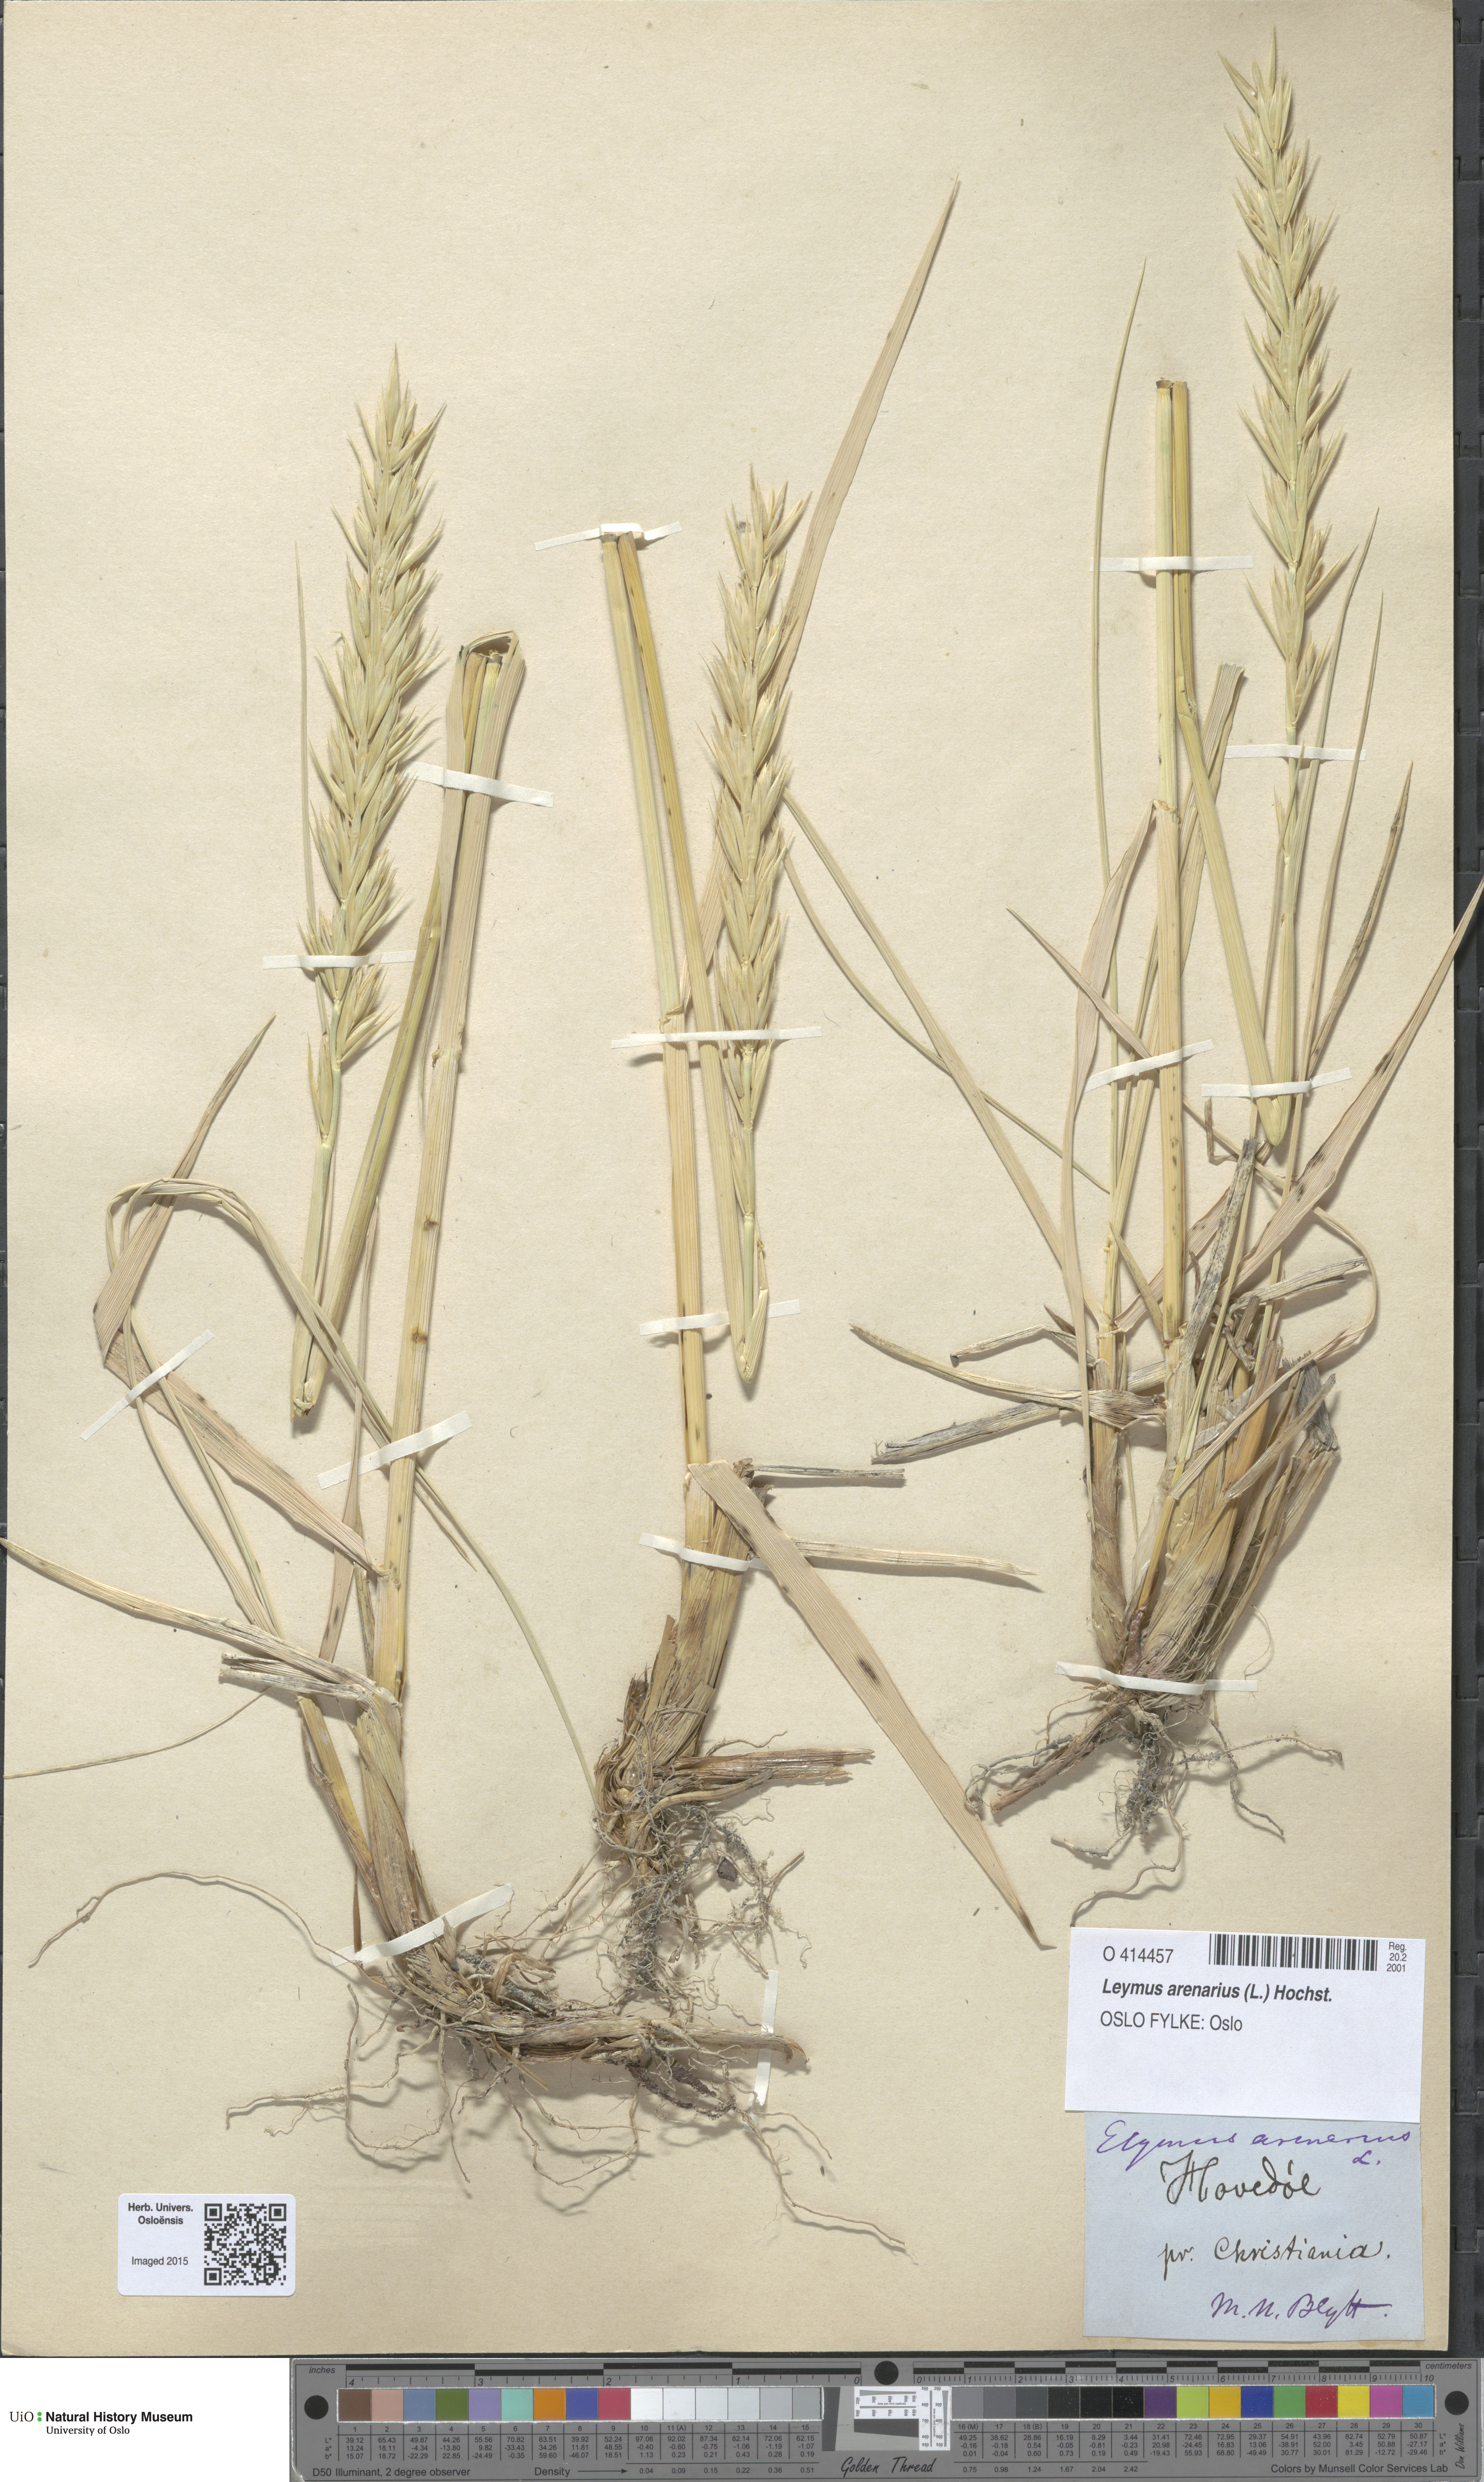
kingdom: Plantae
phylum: Tracheophyta
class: Liliopsida
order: Poales
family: Poaceae
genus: Leymus
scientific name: Leymus arenarius
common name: Lyme-grass
